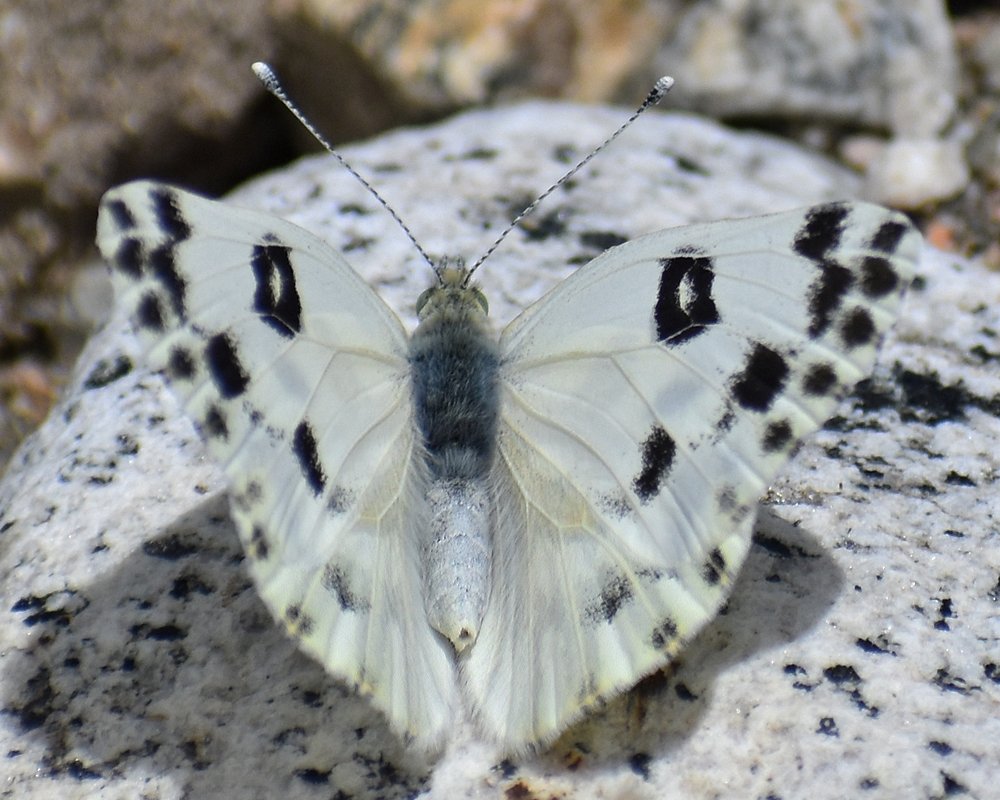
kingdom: Animalia
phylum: Arthropoda
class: Insecta
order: Lepidoptera
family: Pieridae
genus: Pontia
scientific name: Pontia beckerii
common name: Becker's White
